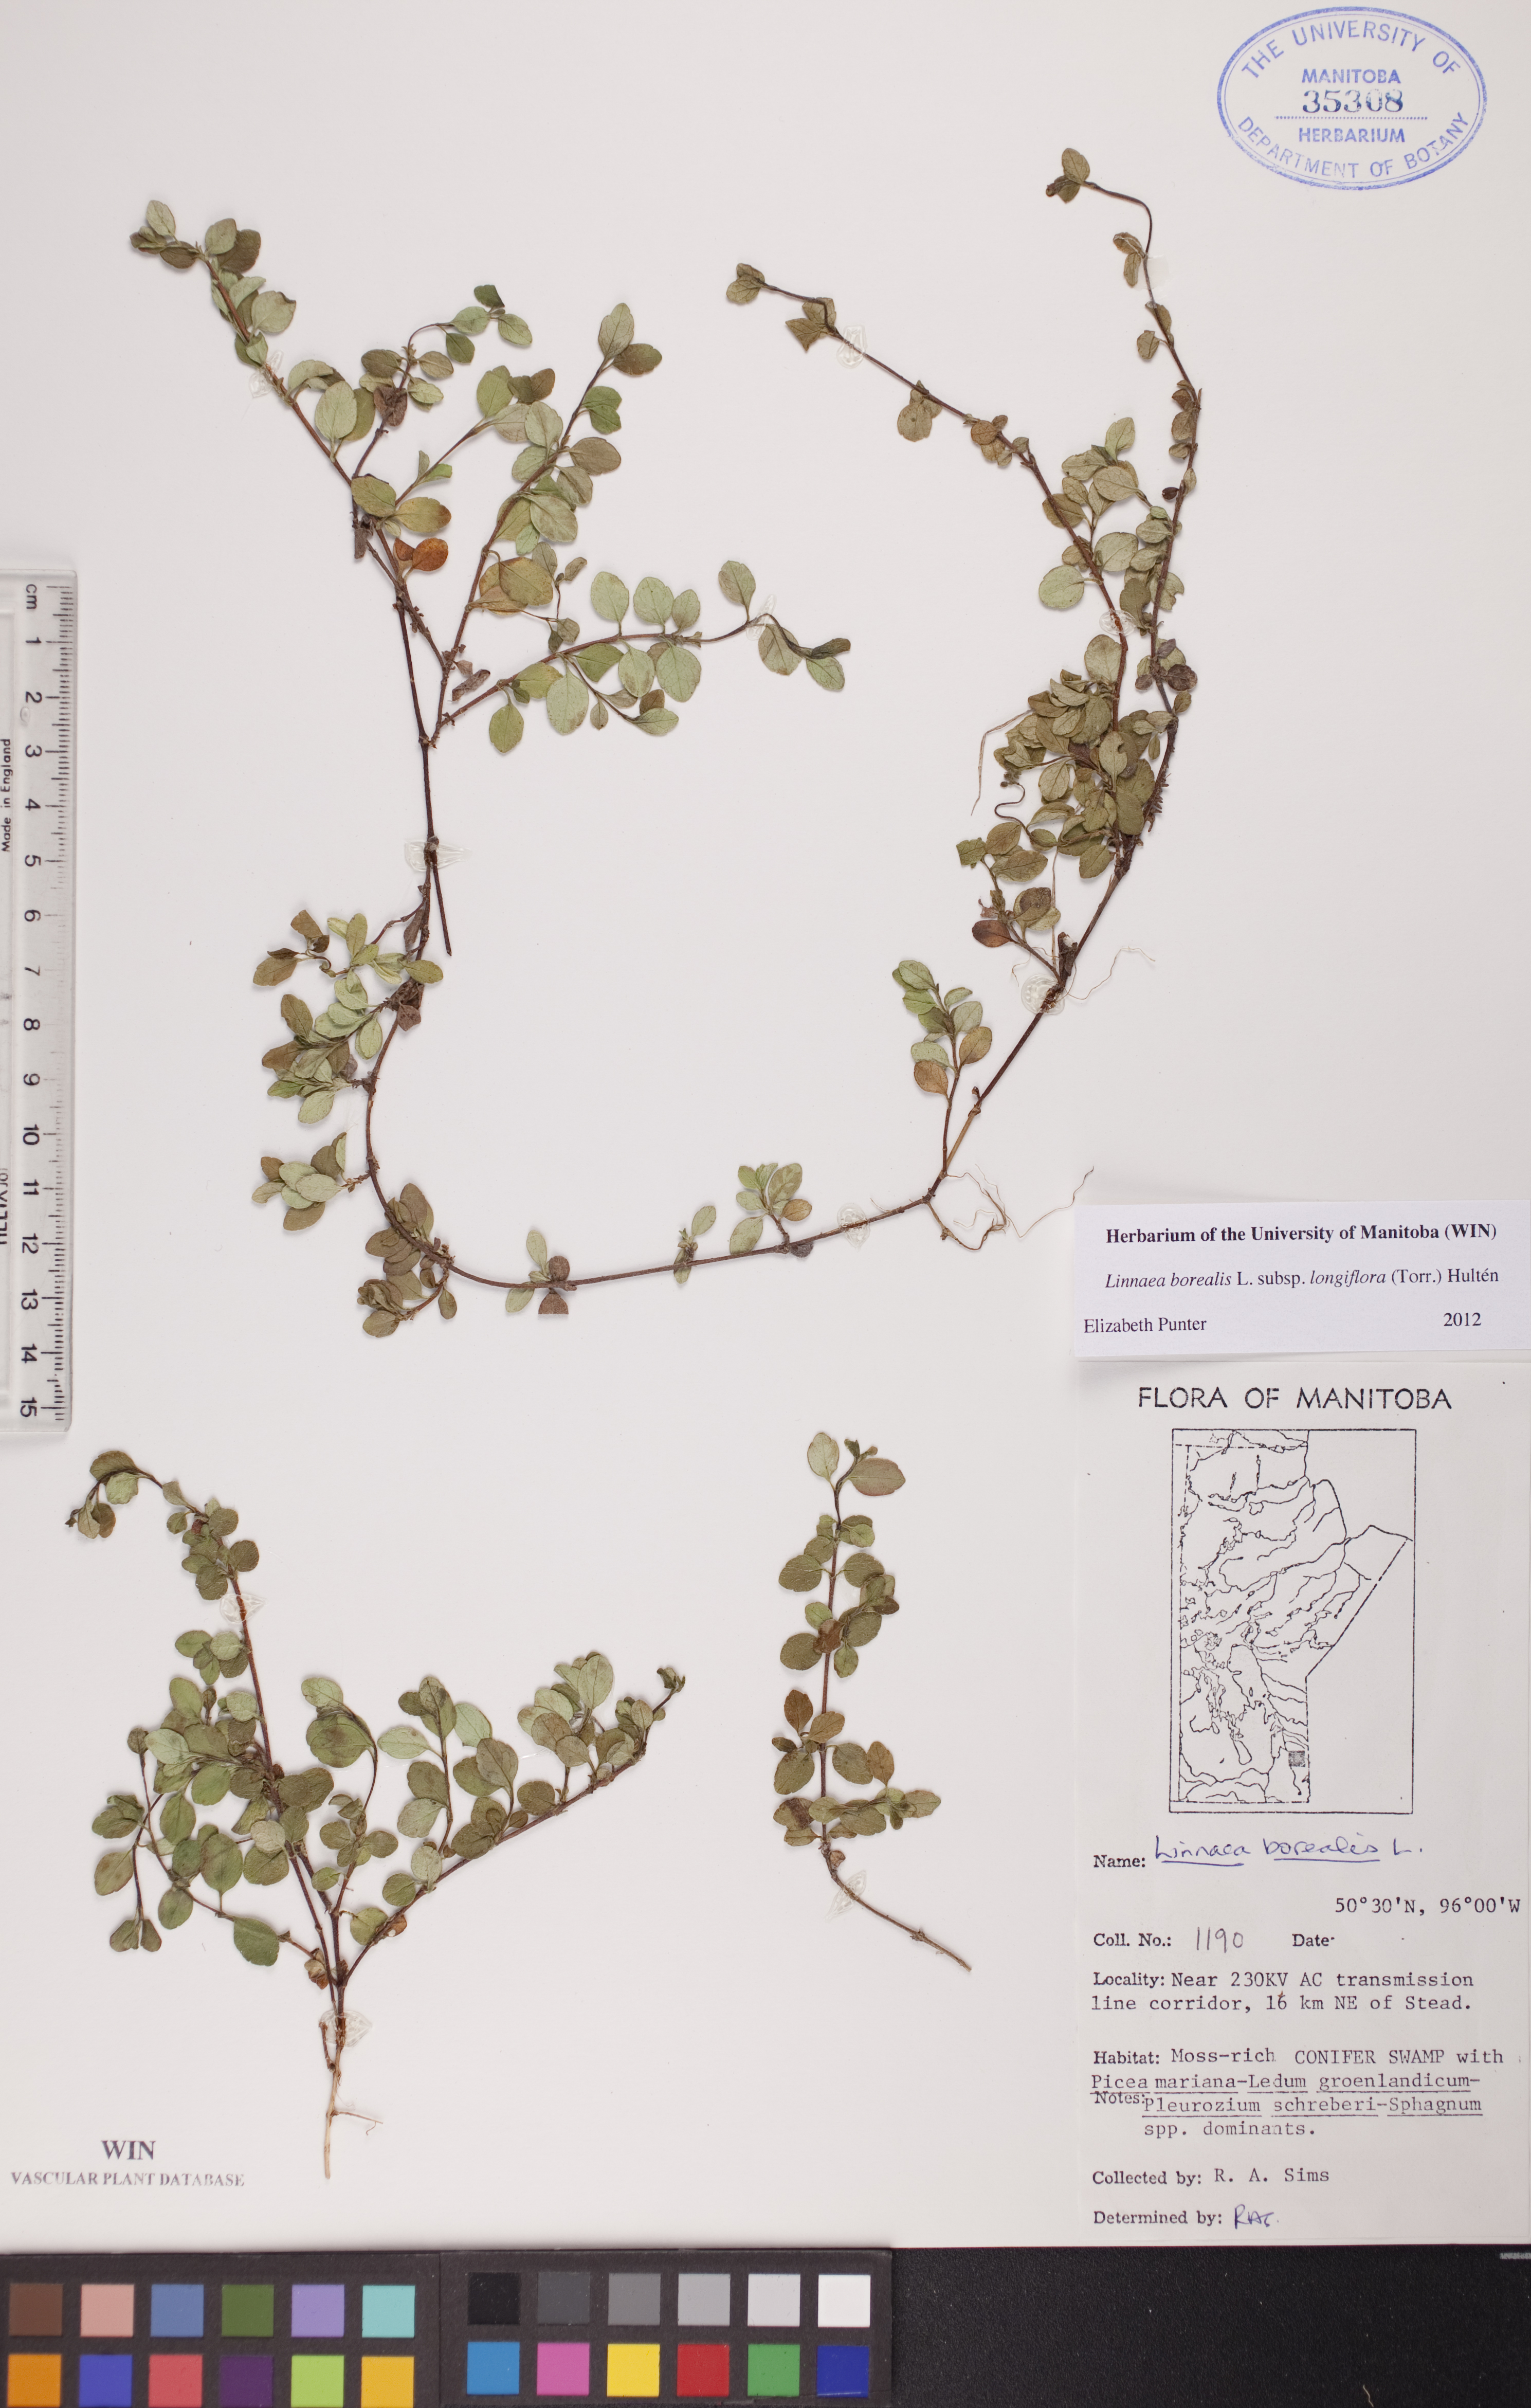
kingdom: Plantae
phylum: Tracheophyta
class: Magnoliopsida
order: Dipsacales
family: Caprifoliaceae
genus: Linnaea
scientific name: Linnaea borealis
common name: Twinflower
